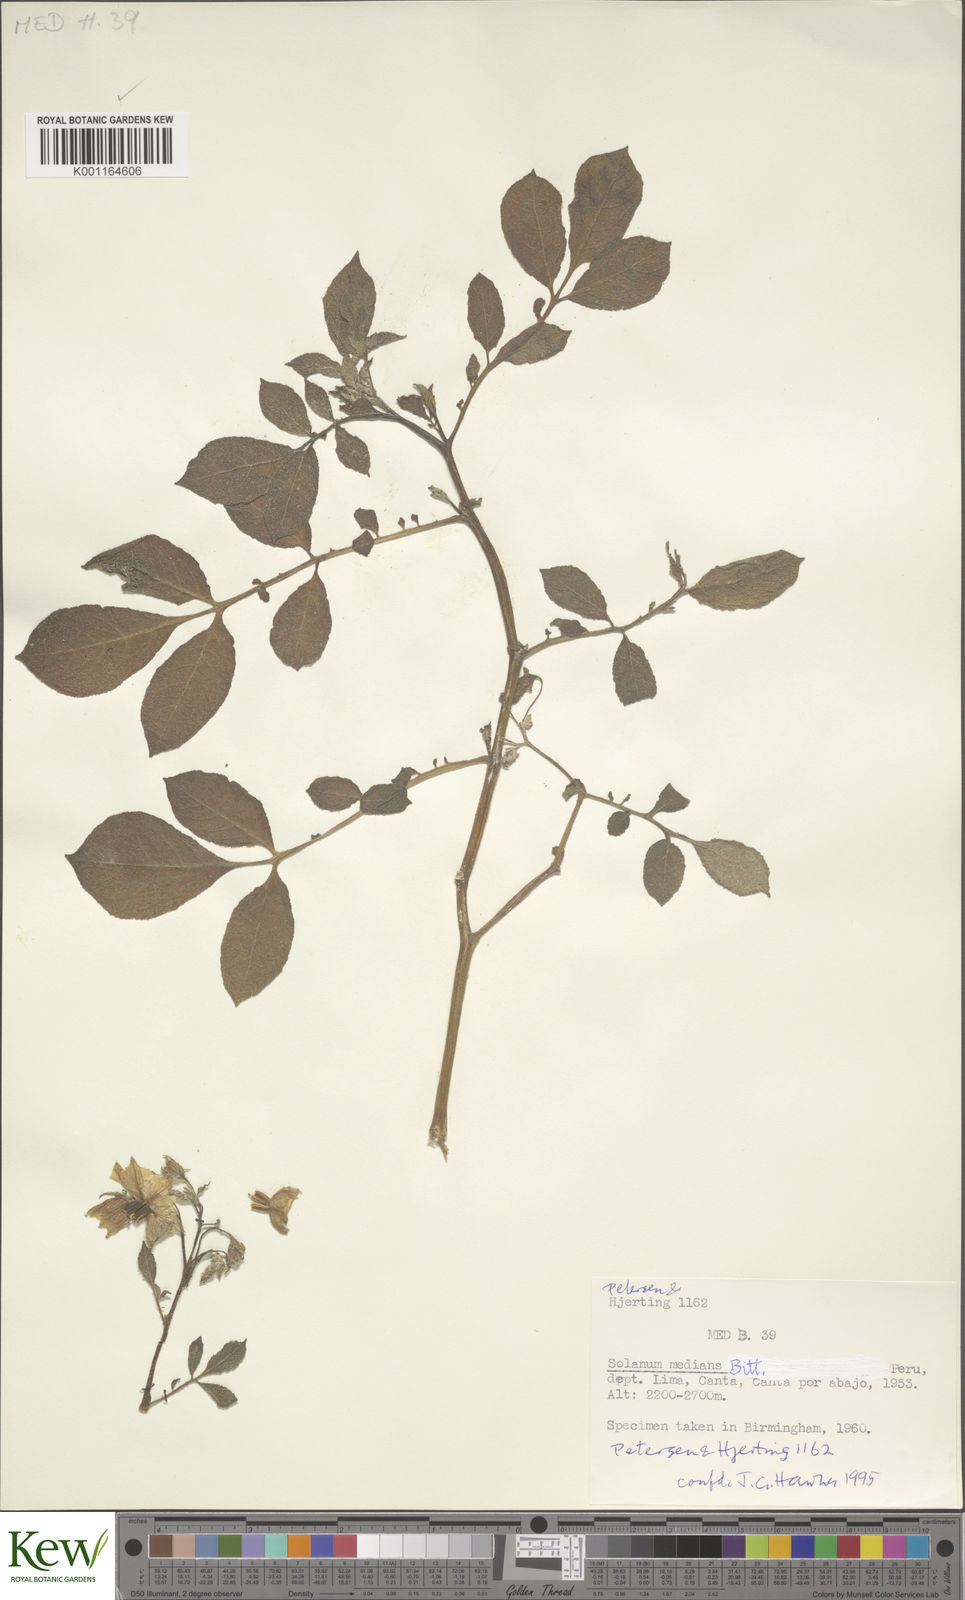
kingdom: Plantae
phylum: Tracheophyta
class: Magnoliopsida
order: Solanales
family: Solanaceae
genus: Solanum
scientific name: Solanum medians
